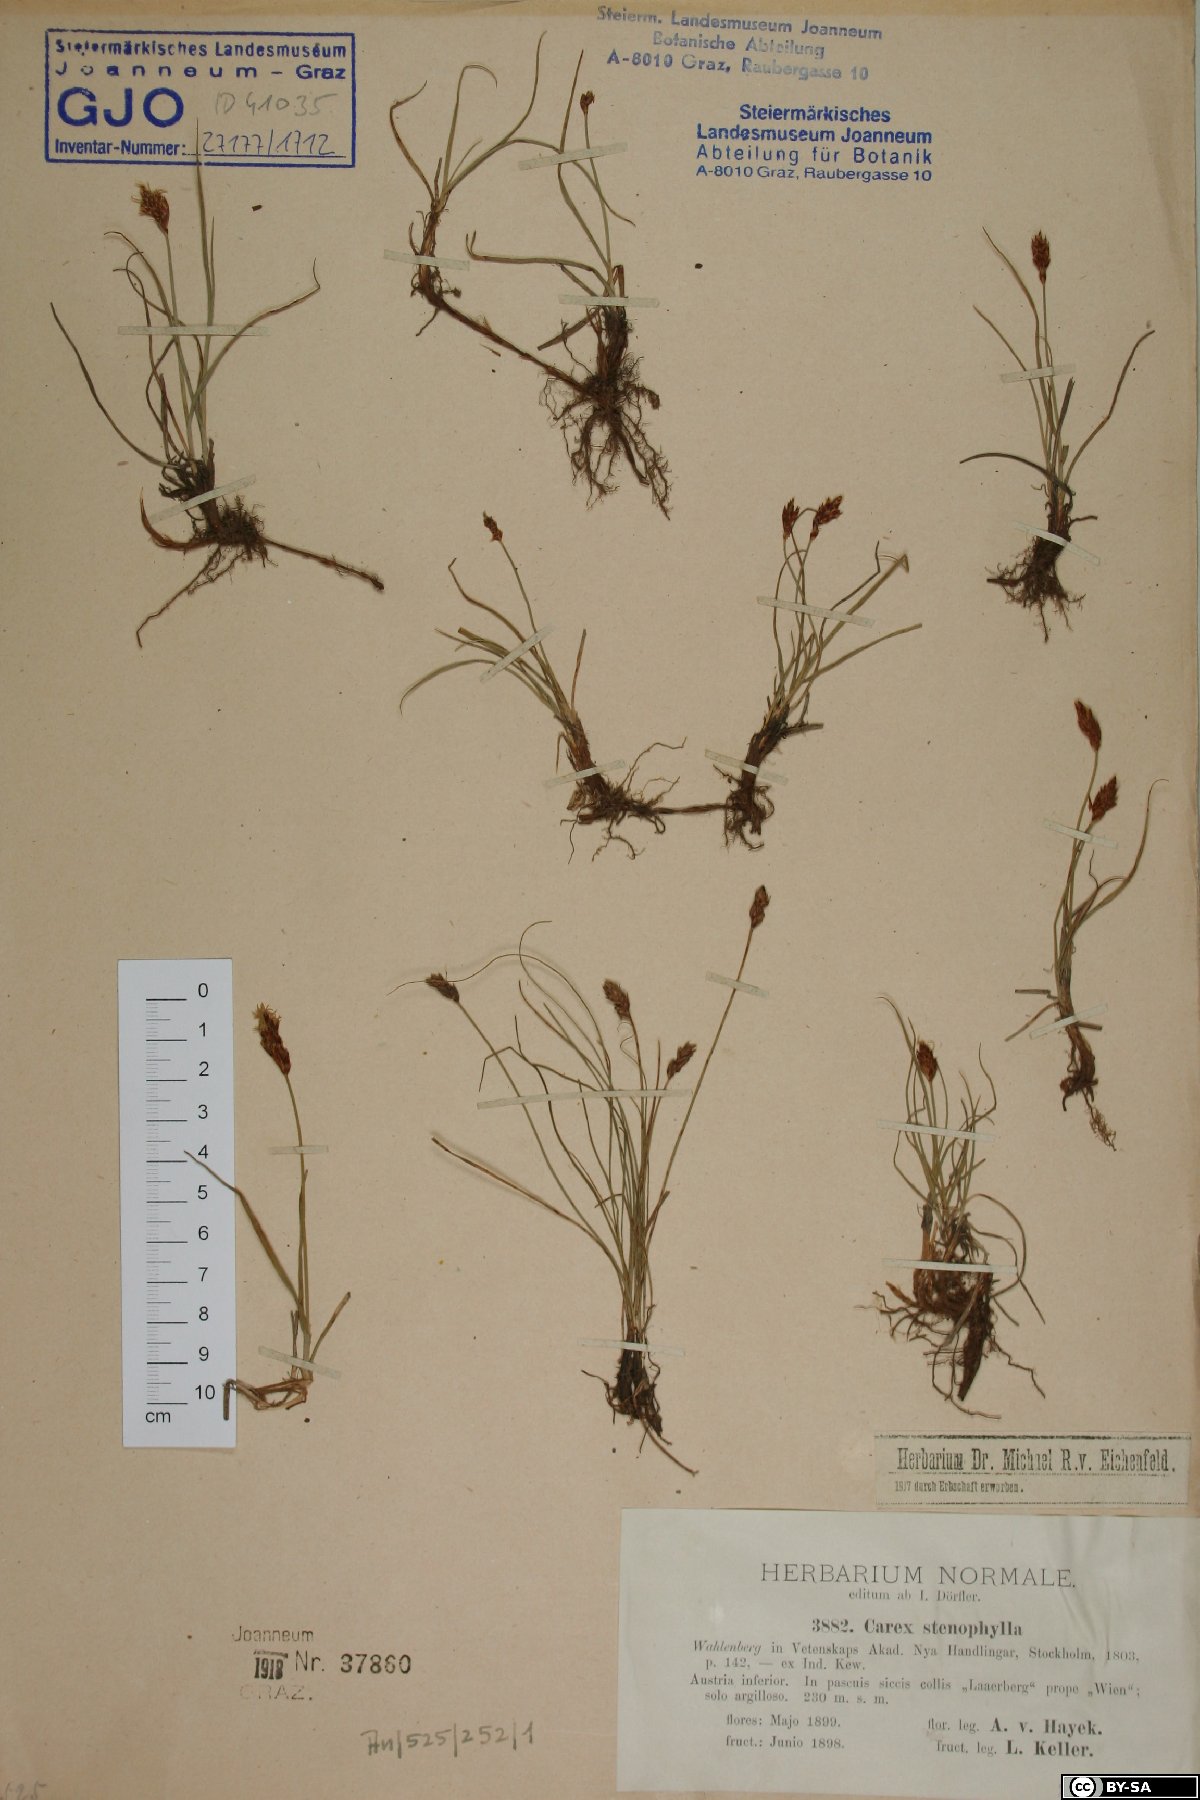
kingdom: Plantae
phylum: Tracheophyta
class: Liliopsida
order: Poales
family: Cyperaceae
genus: Carex
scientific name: Carex stenophylla
